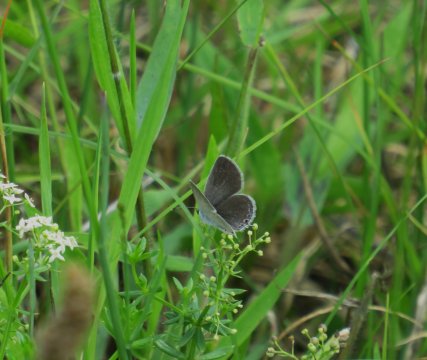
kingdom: Animalia
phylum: Arthropoda
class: Insecta
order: Lepidoptera
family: Lycaenidae
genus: Elkalyce
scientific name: Elkalyce comyntas
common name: Eastern Tailed-Blue
